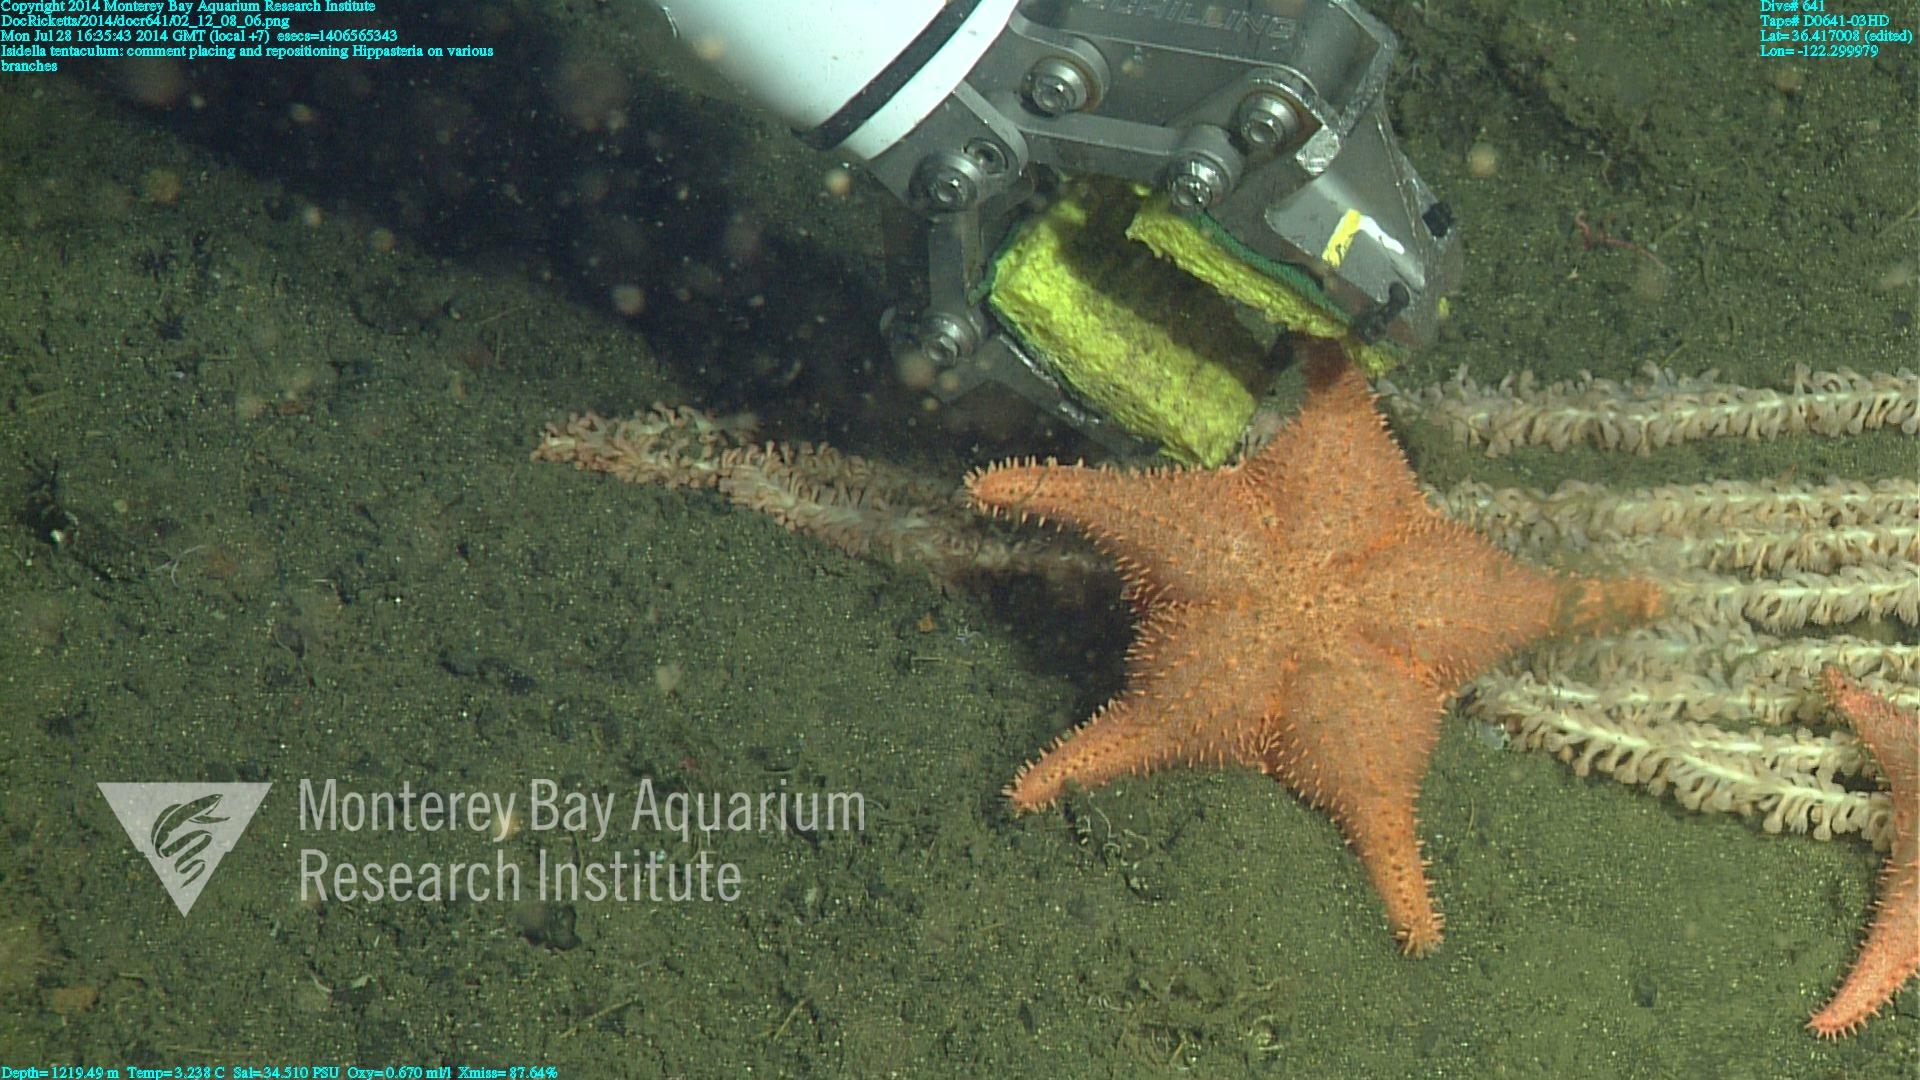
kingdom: Animalia
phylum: Cnidaria
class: Anthozoa
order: Scleralcyonacea
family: Keratoisididae
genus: Isidella
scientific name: Isidella tentaculum
